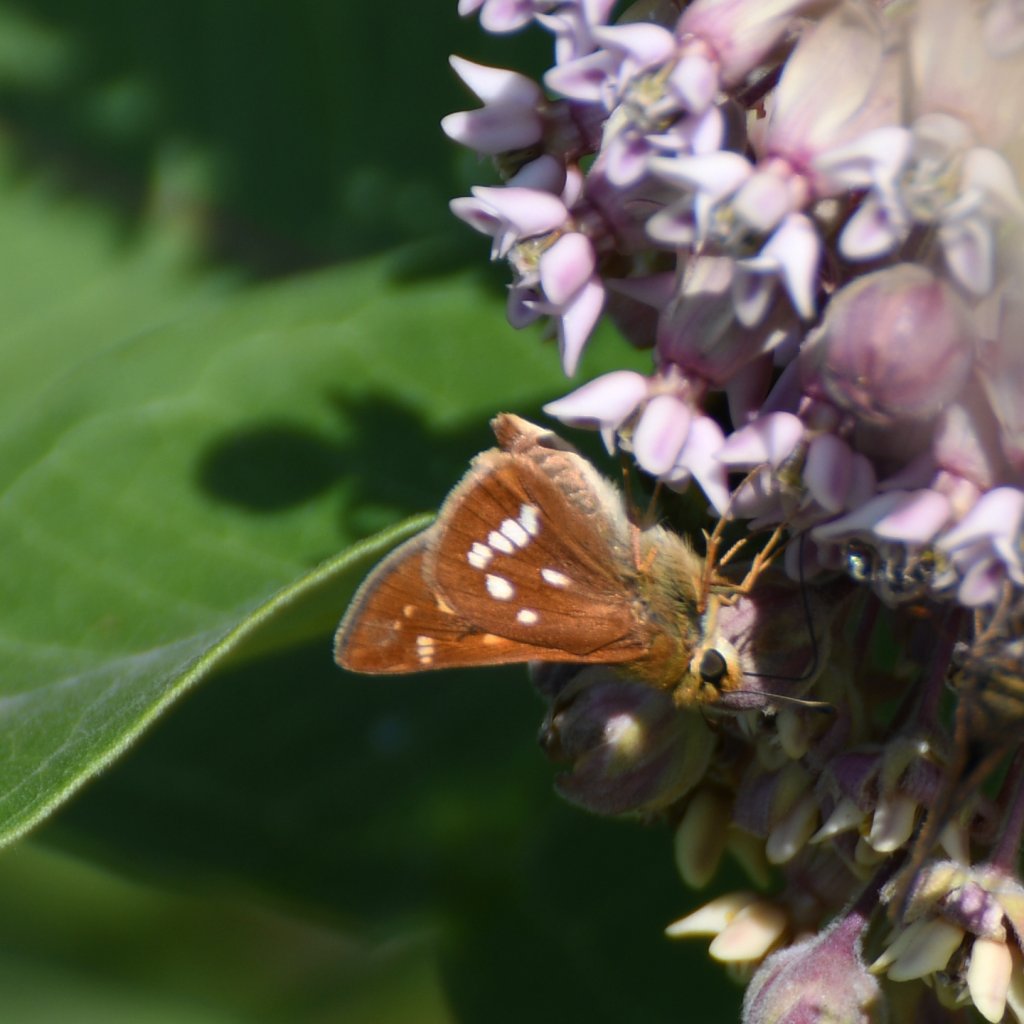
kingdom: Animalia
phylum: Arthropoda
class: Insecta
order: Lepidoptera
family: Hesperiidae
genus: Hesperia
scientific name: Hesperia leonardus
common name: Leonard's Skipper
